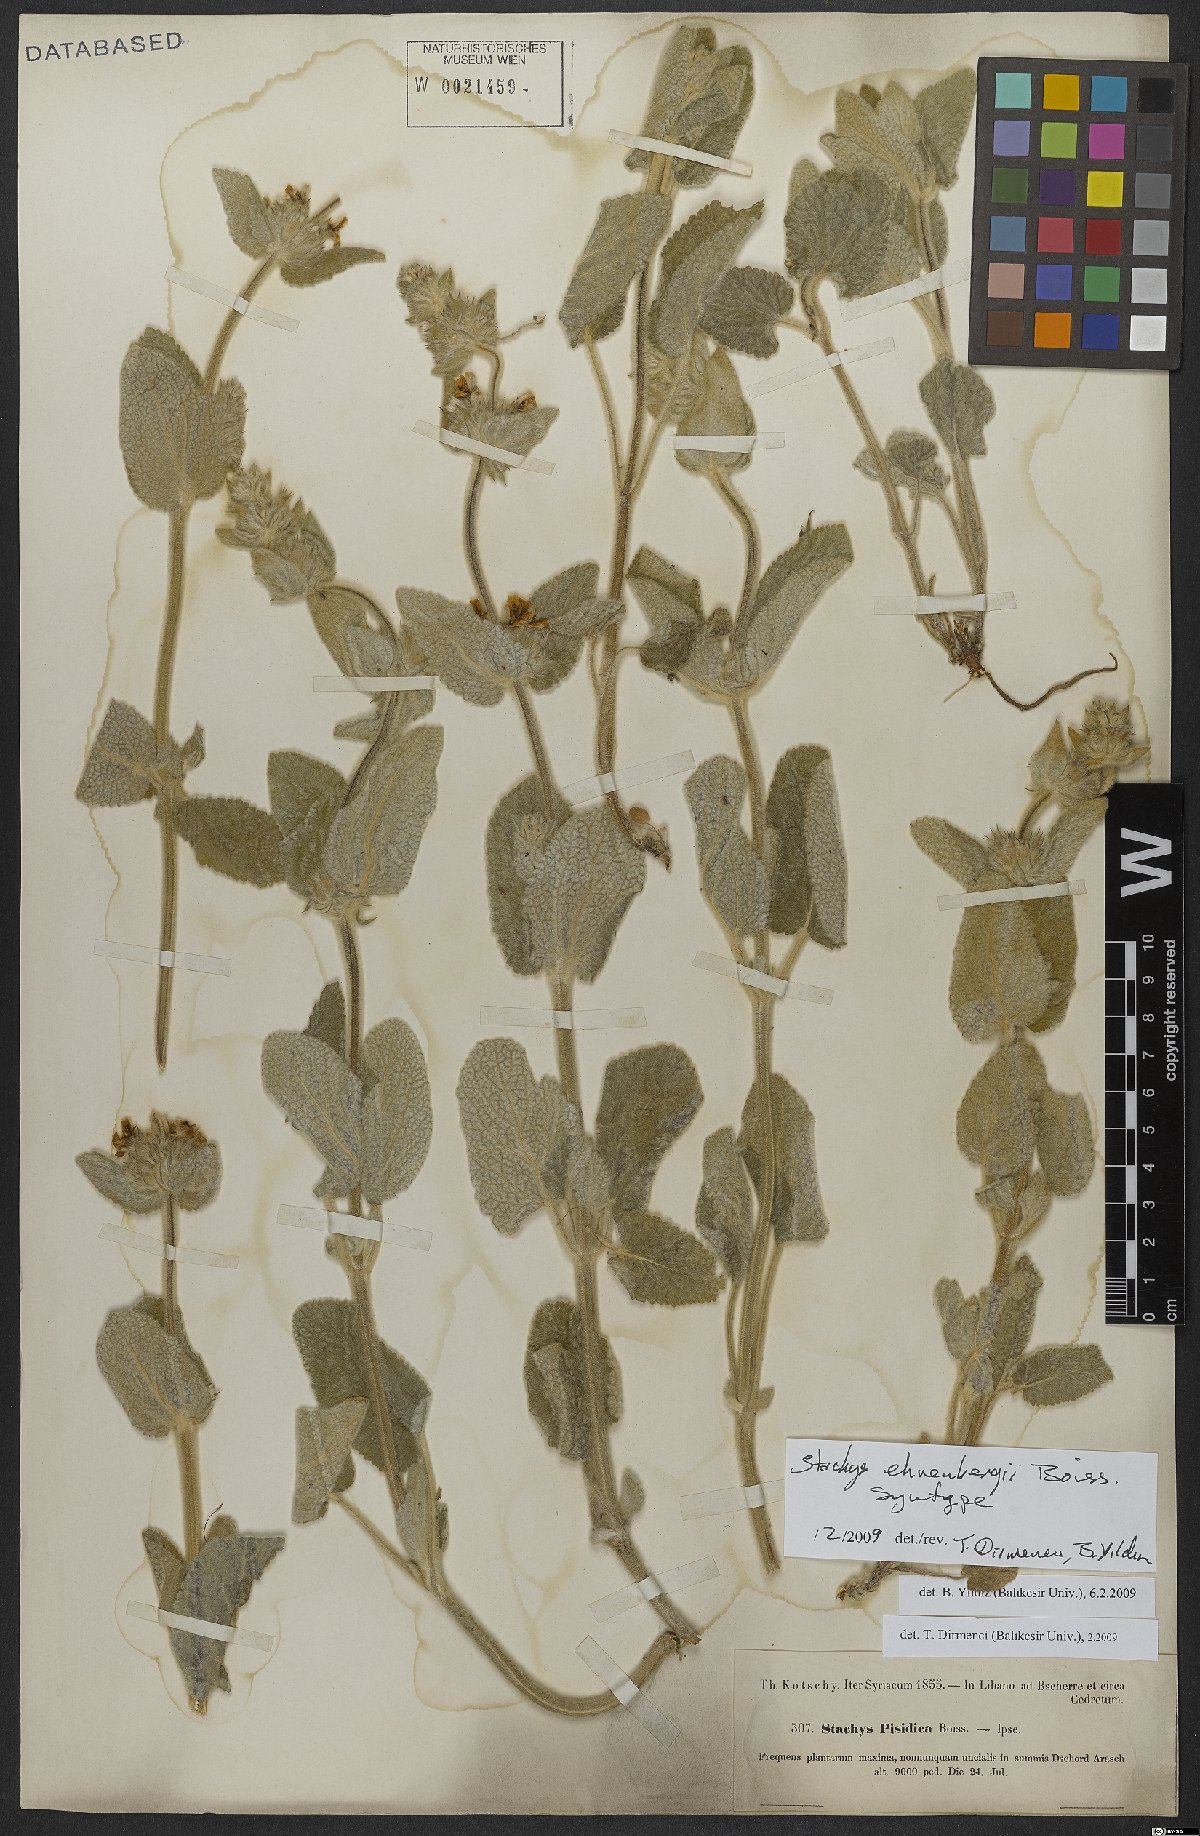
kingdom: Plantae
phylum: Tracheophyta
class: Magnoliopsida
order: Lamiales
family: Lamiaceae
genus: Stachys
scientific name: Stachys ehrenbergii
